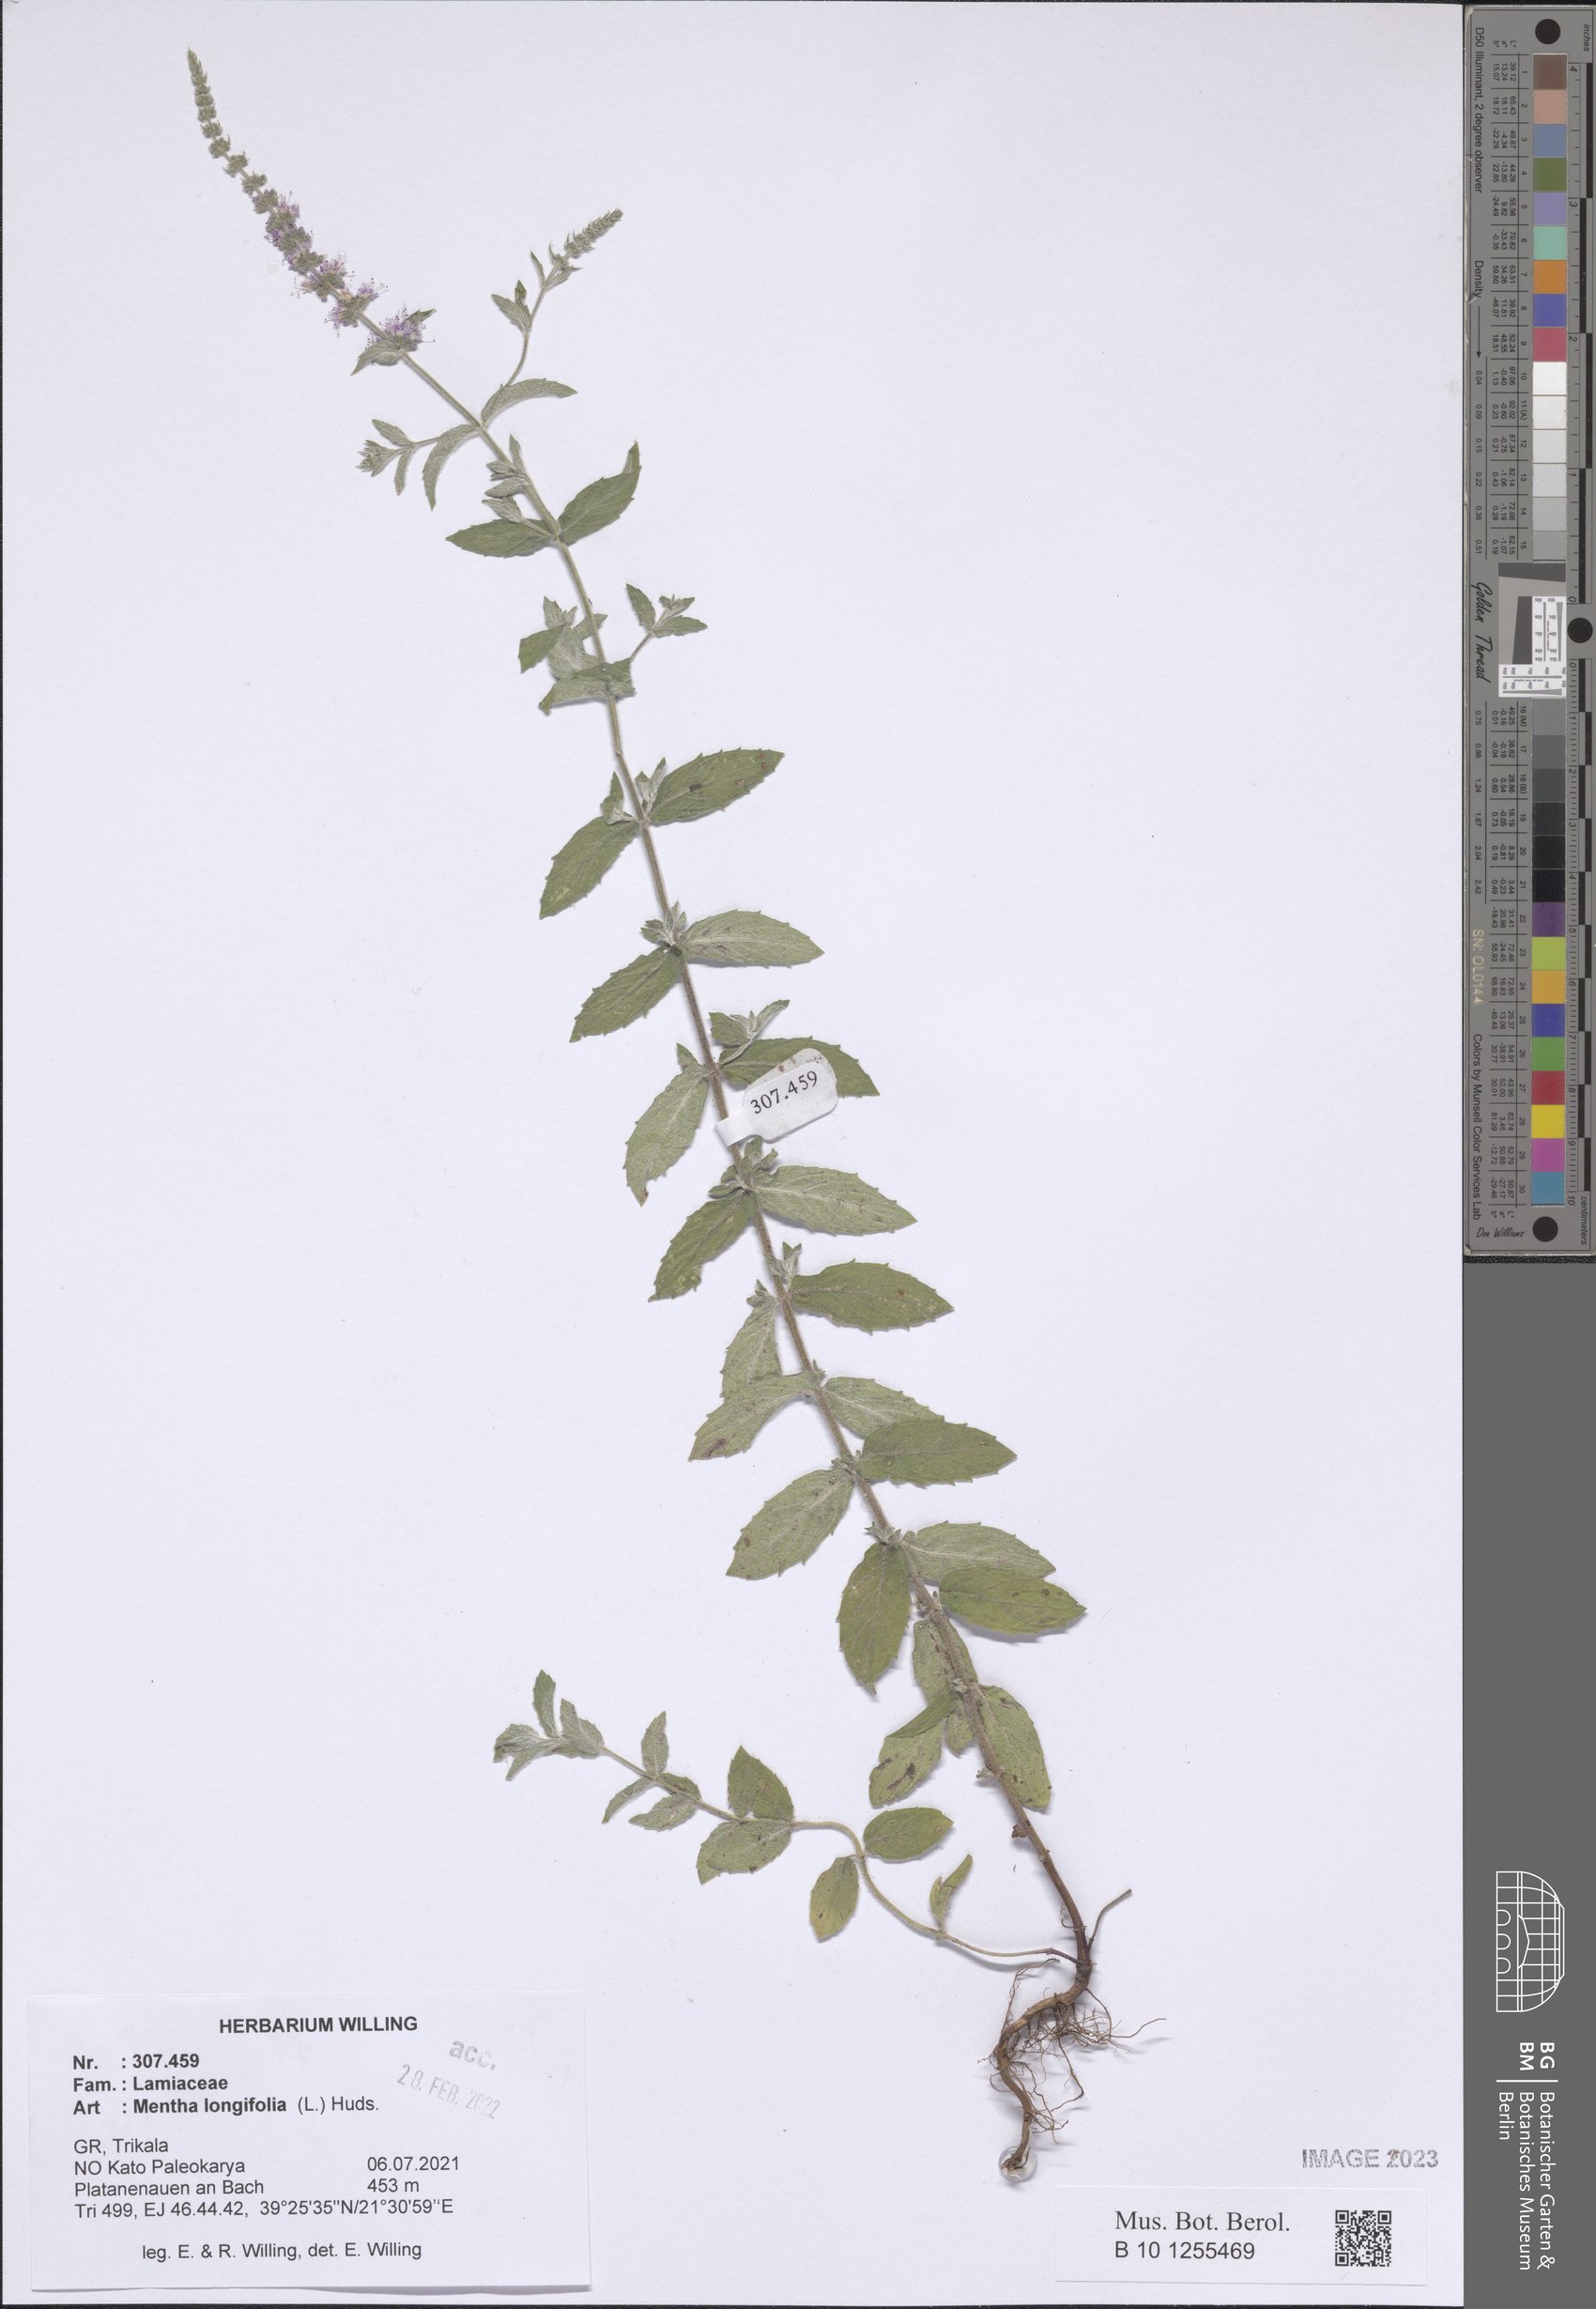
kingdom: Plantae
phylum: Tracheophyta
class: Magnoliopsida
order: Lamiales
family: Lamiaceae
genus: Mentha
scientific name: Mentha longifolia
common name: Horse mint
